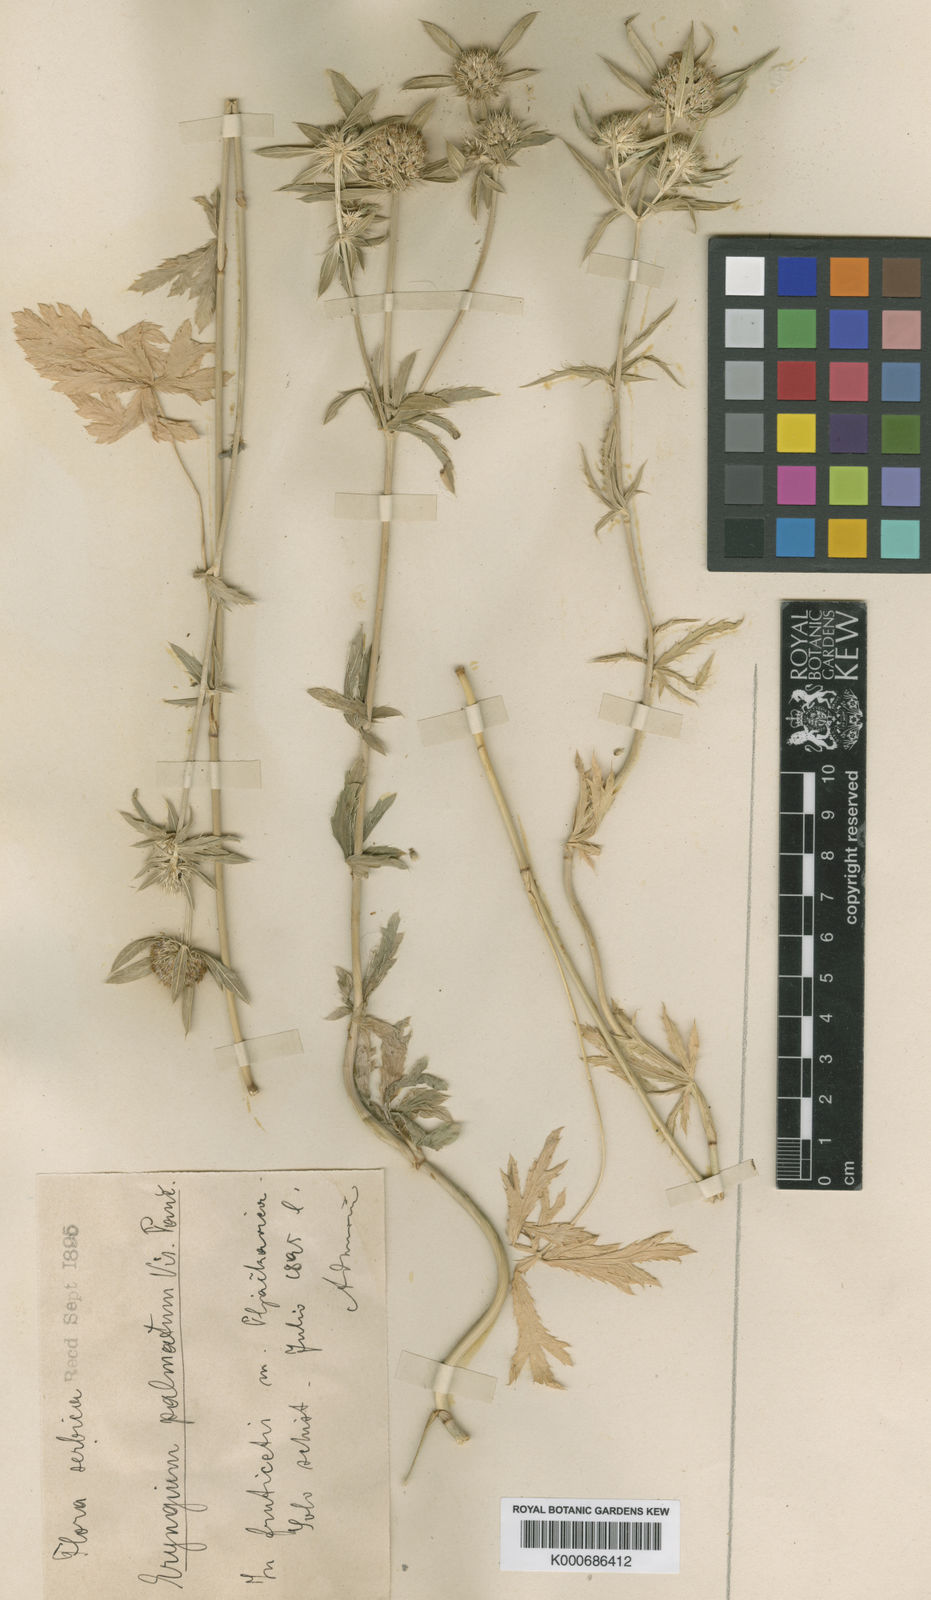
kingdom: Plantae
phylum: Tracheophyta
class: Magnoliopsida
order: Apiales
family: Apiaceae
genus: Eryngium
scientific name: Eryngium palmatum
